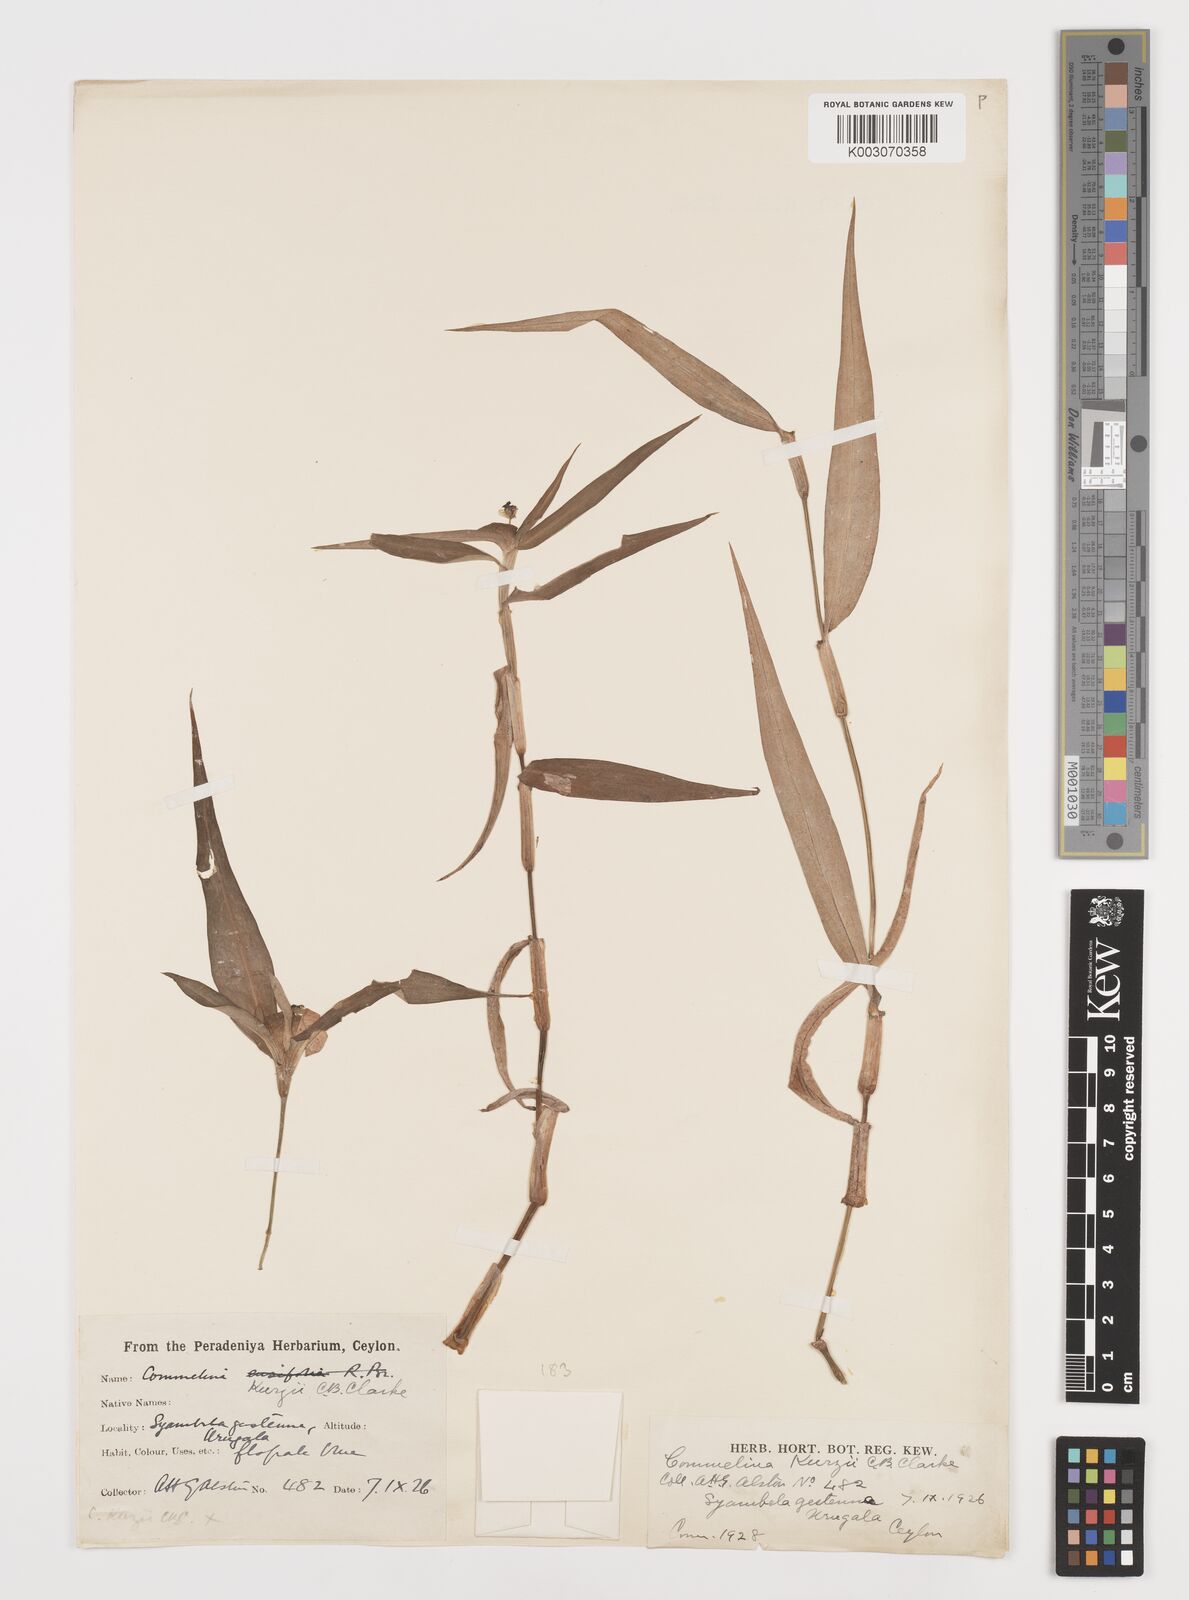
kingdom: Plantae
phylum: Tracheophyta
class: Liliopsida
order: Commelinales
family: Commelinaceae
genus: Commelina
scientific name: Commelina undulata
